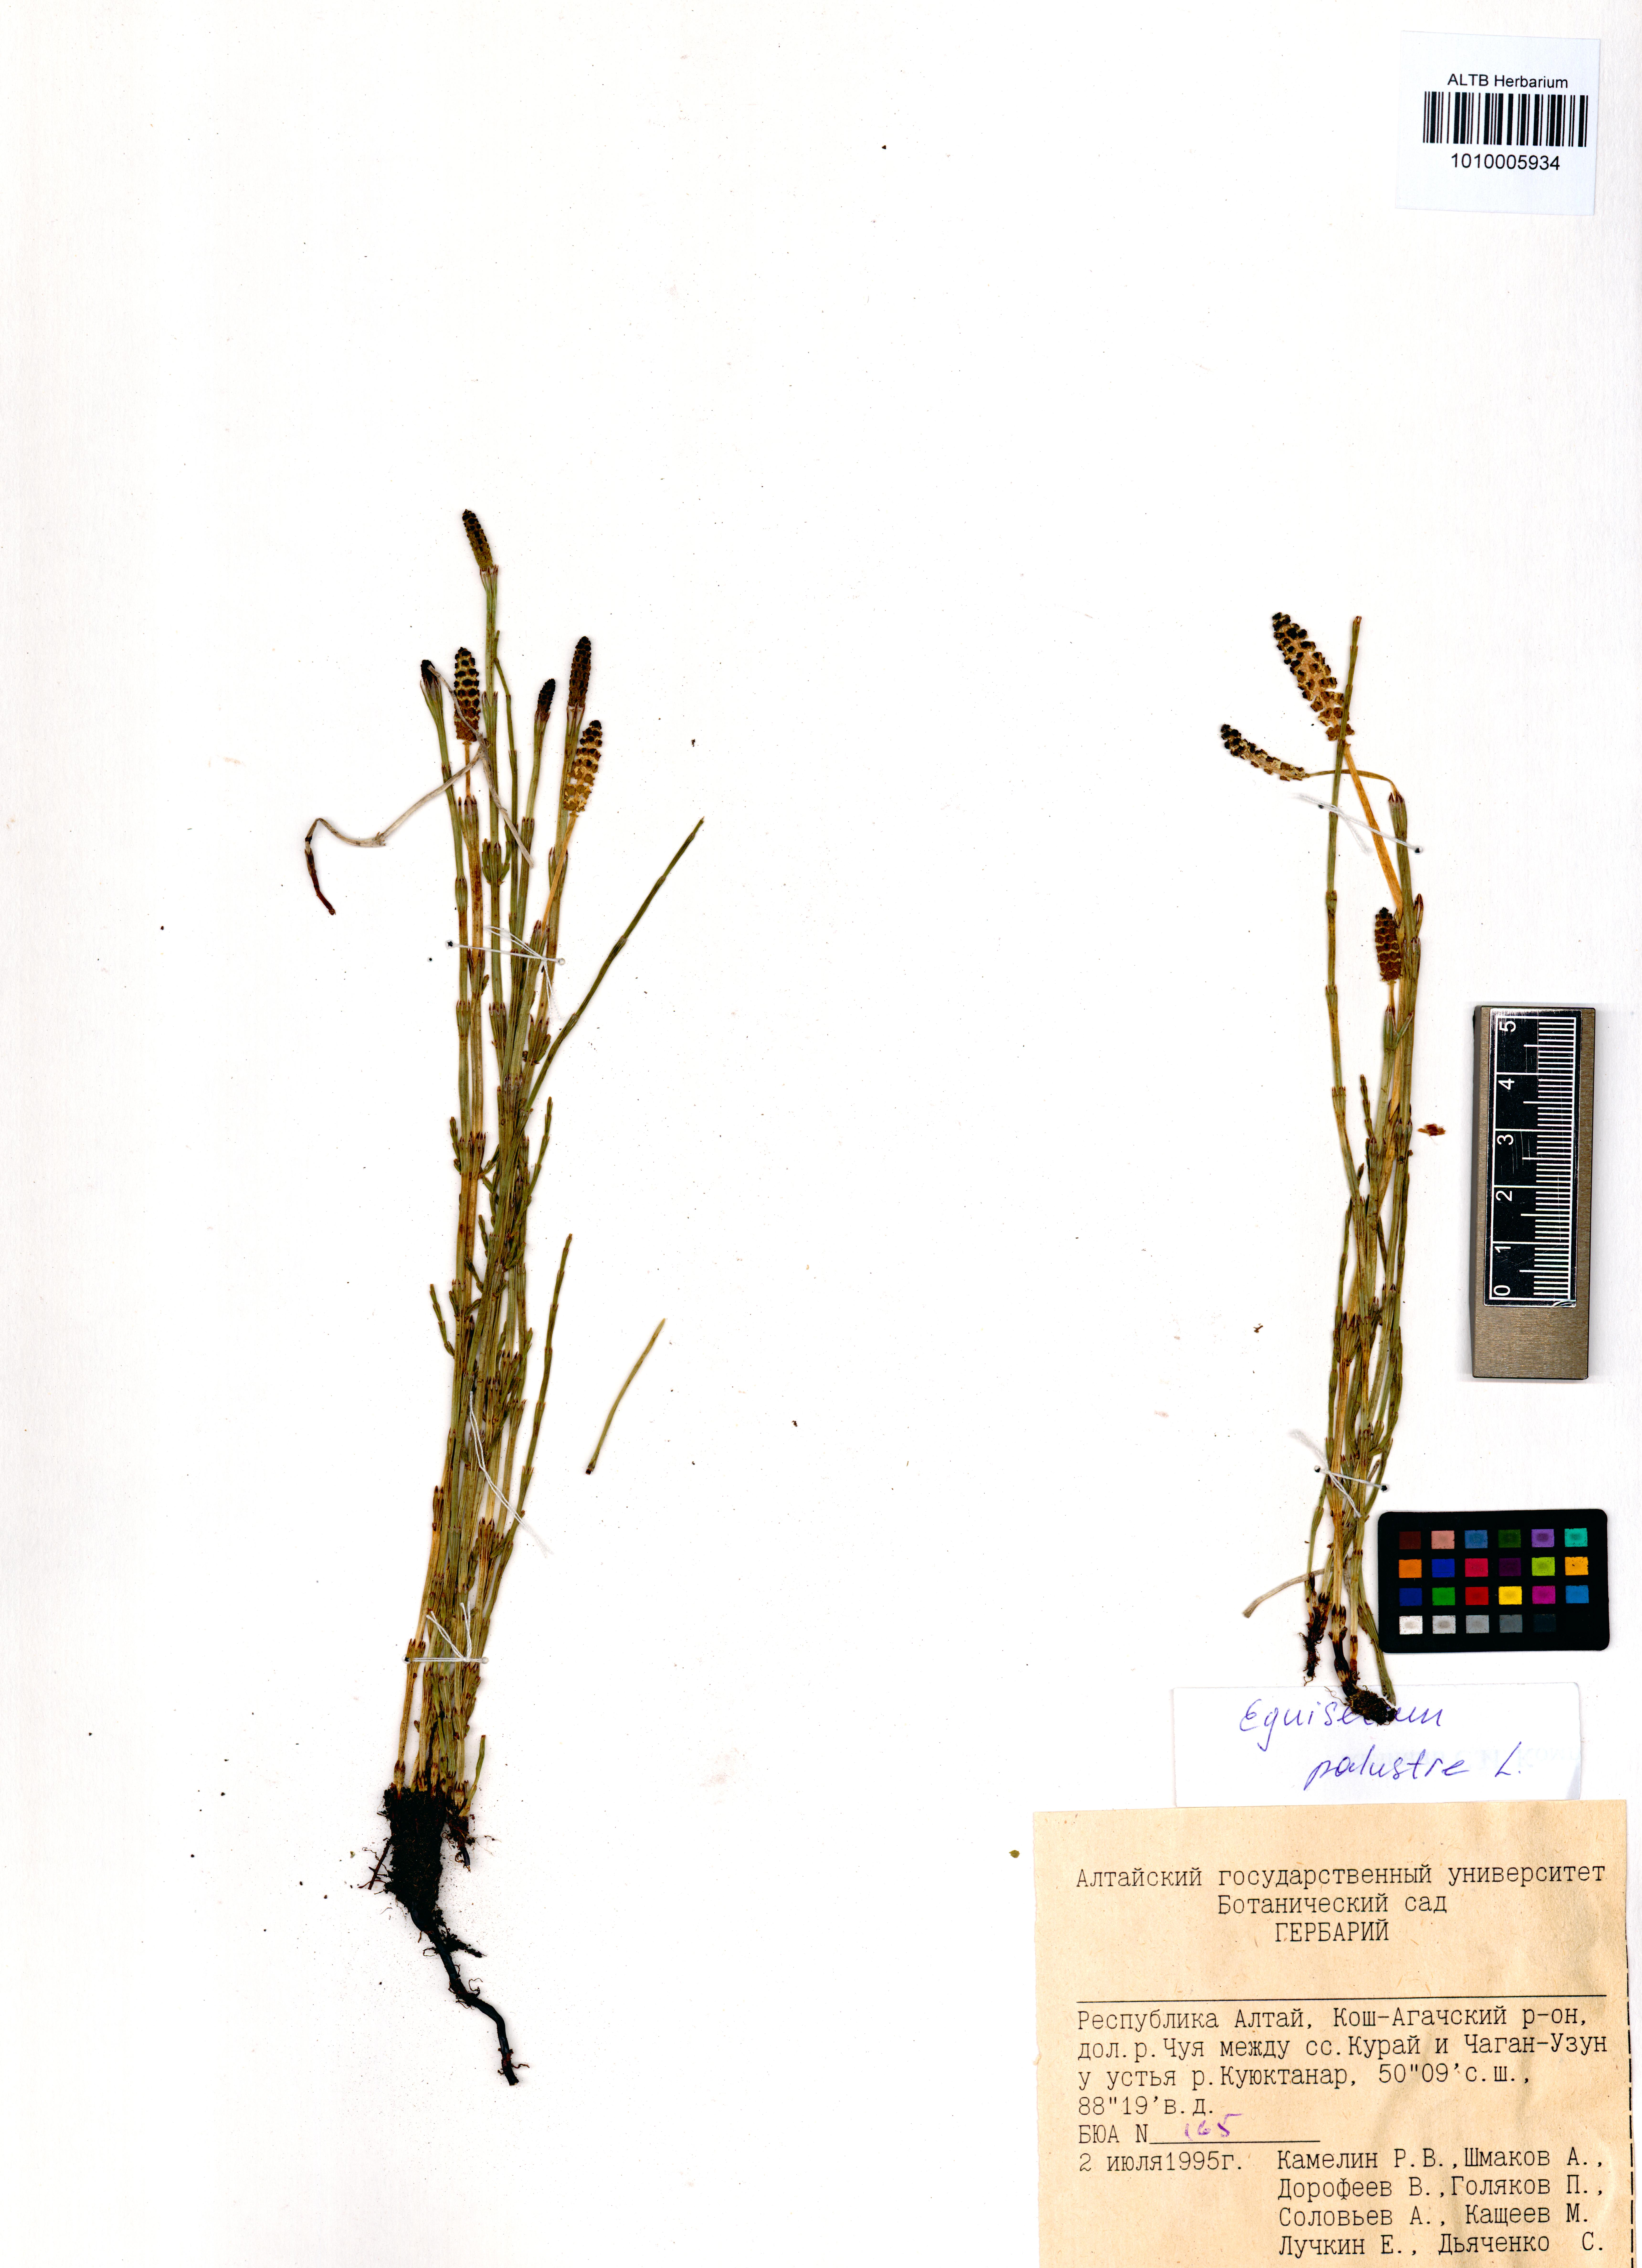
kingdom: Plantae
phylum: Tracheophyta
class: Polypodiopsida
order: Equisetales
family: Equisetaceae
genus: Equisetum
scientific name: Equisetum palustre
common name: Marsh horsetail
